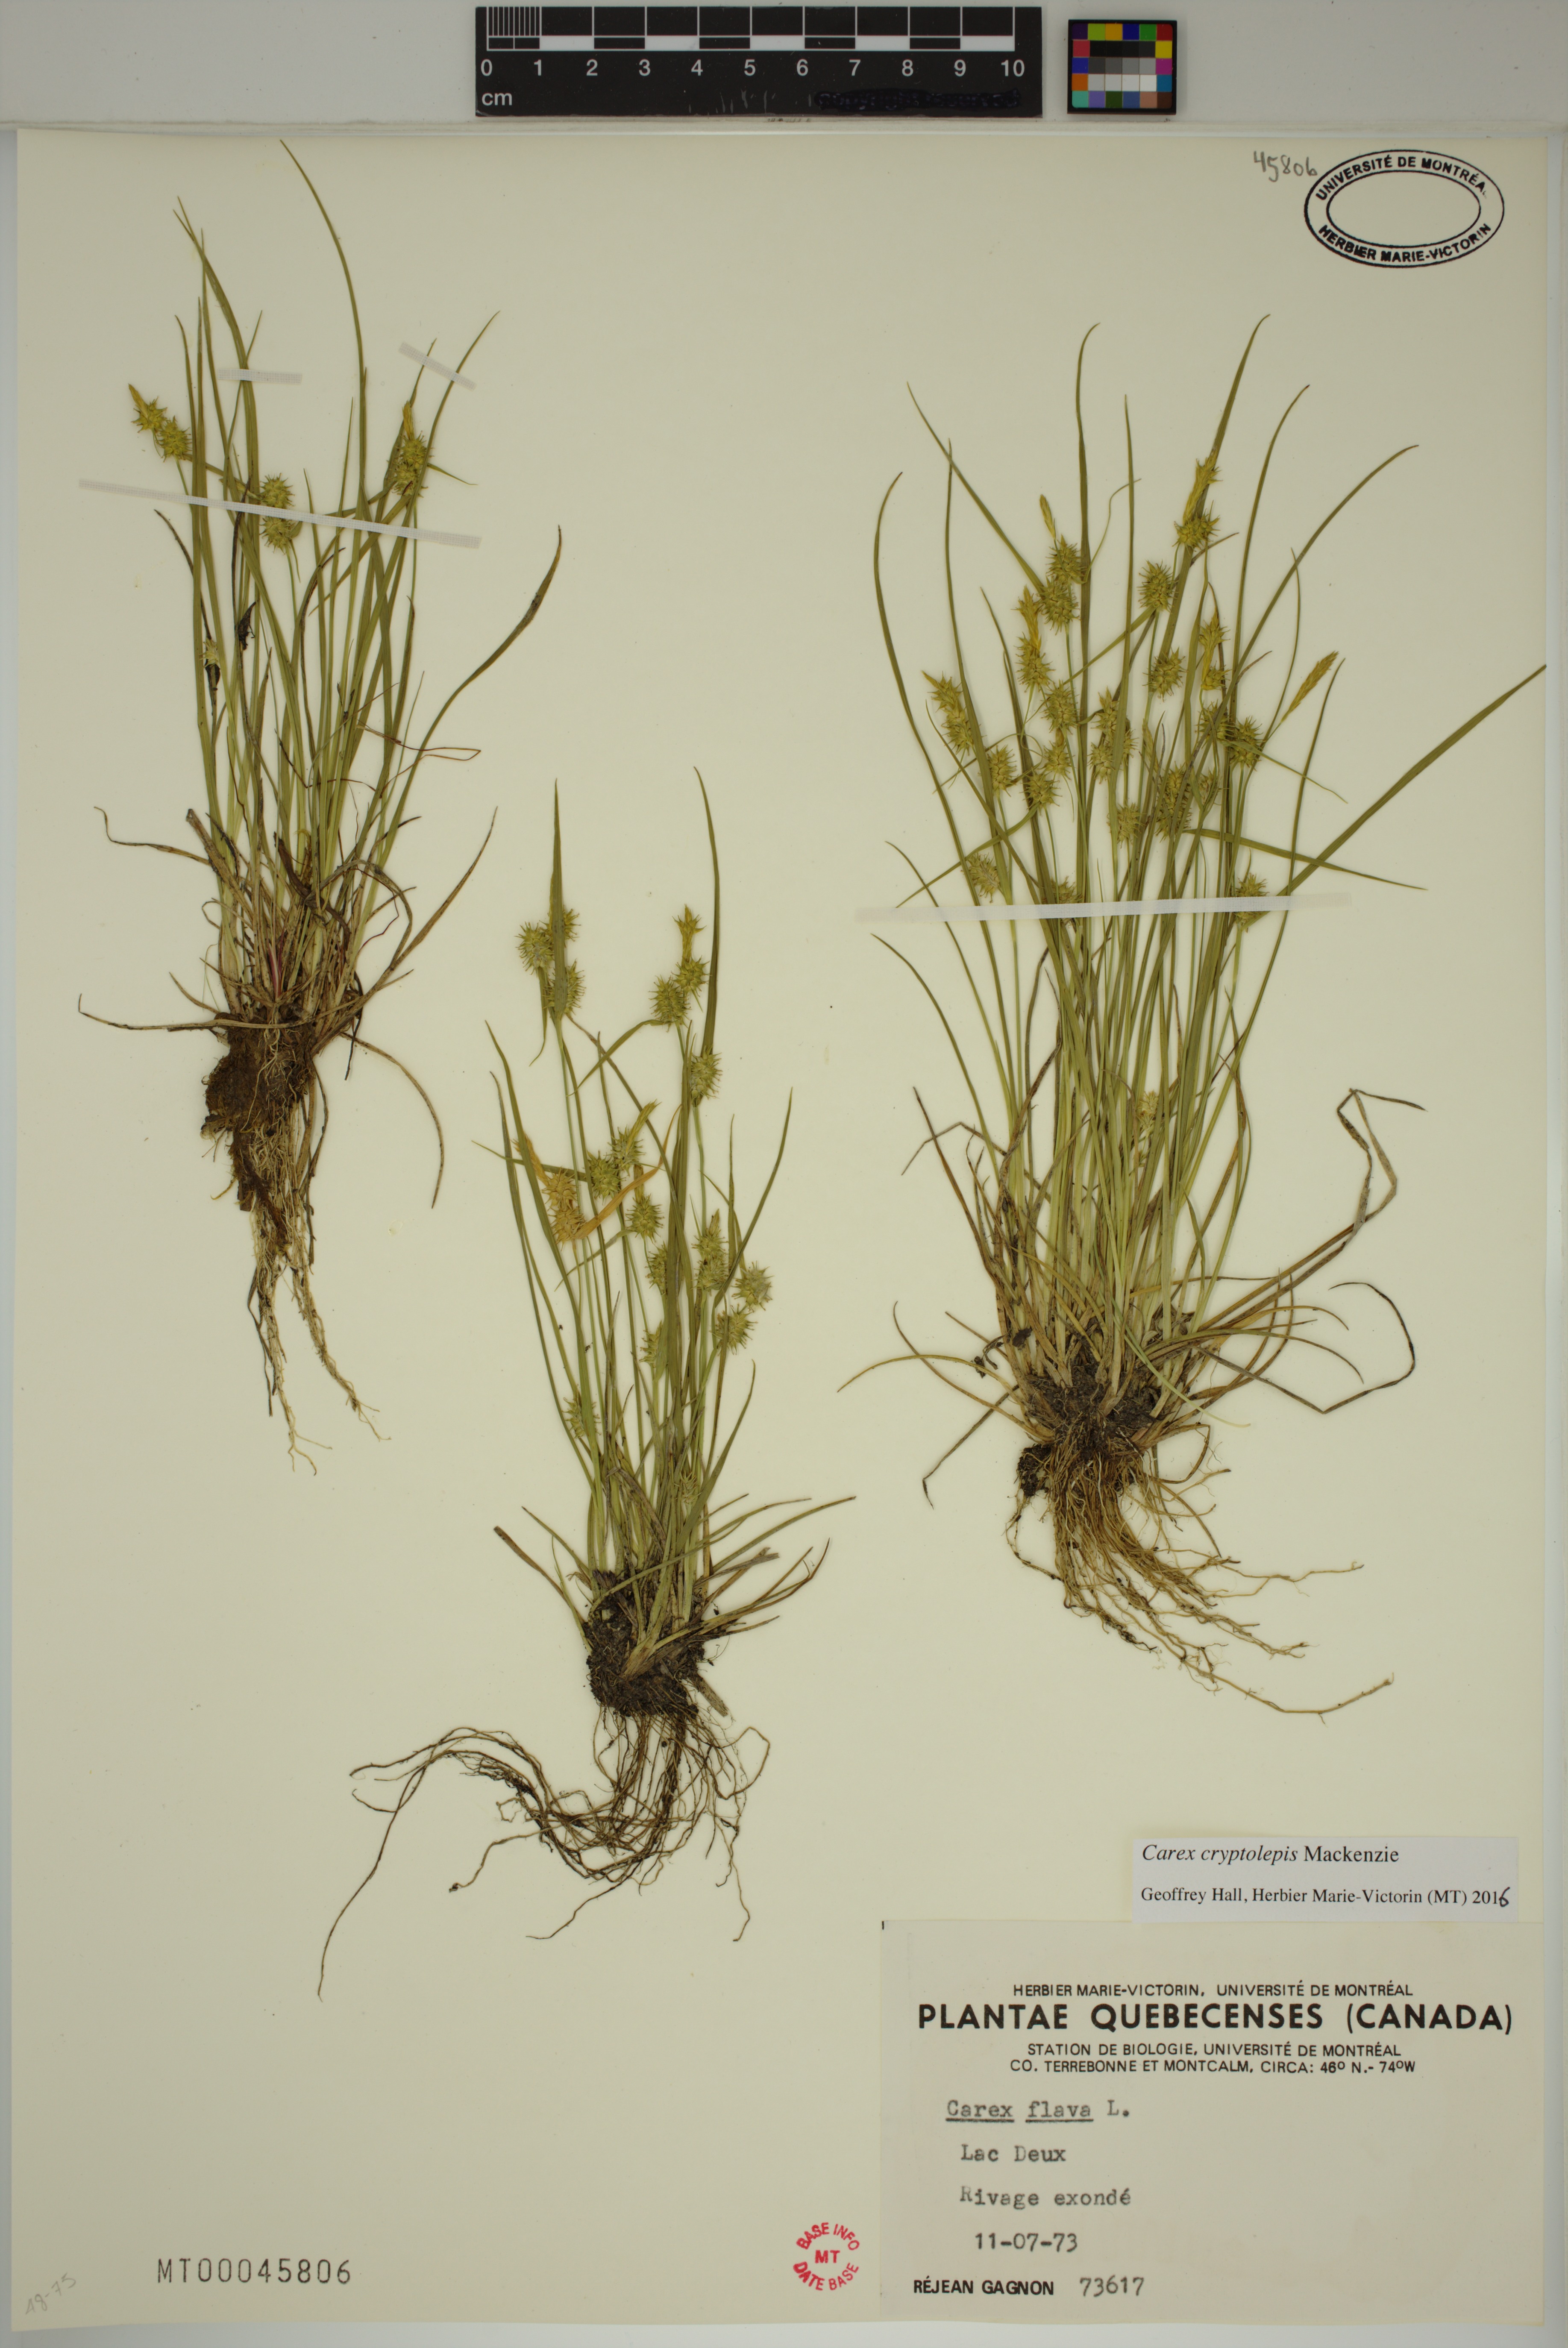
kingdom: Plantae
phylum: Tracheophyta
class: Liliopsida
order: Poales
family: Cyperaceae
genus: Carex
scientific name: Carex cryptolepis
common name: Northeastern sedge
